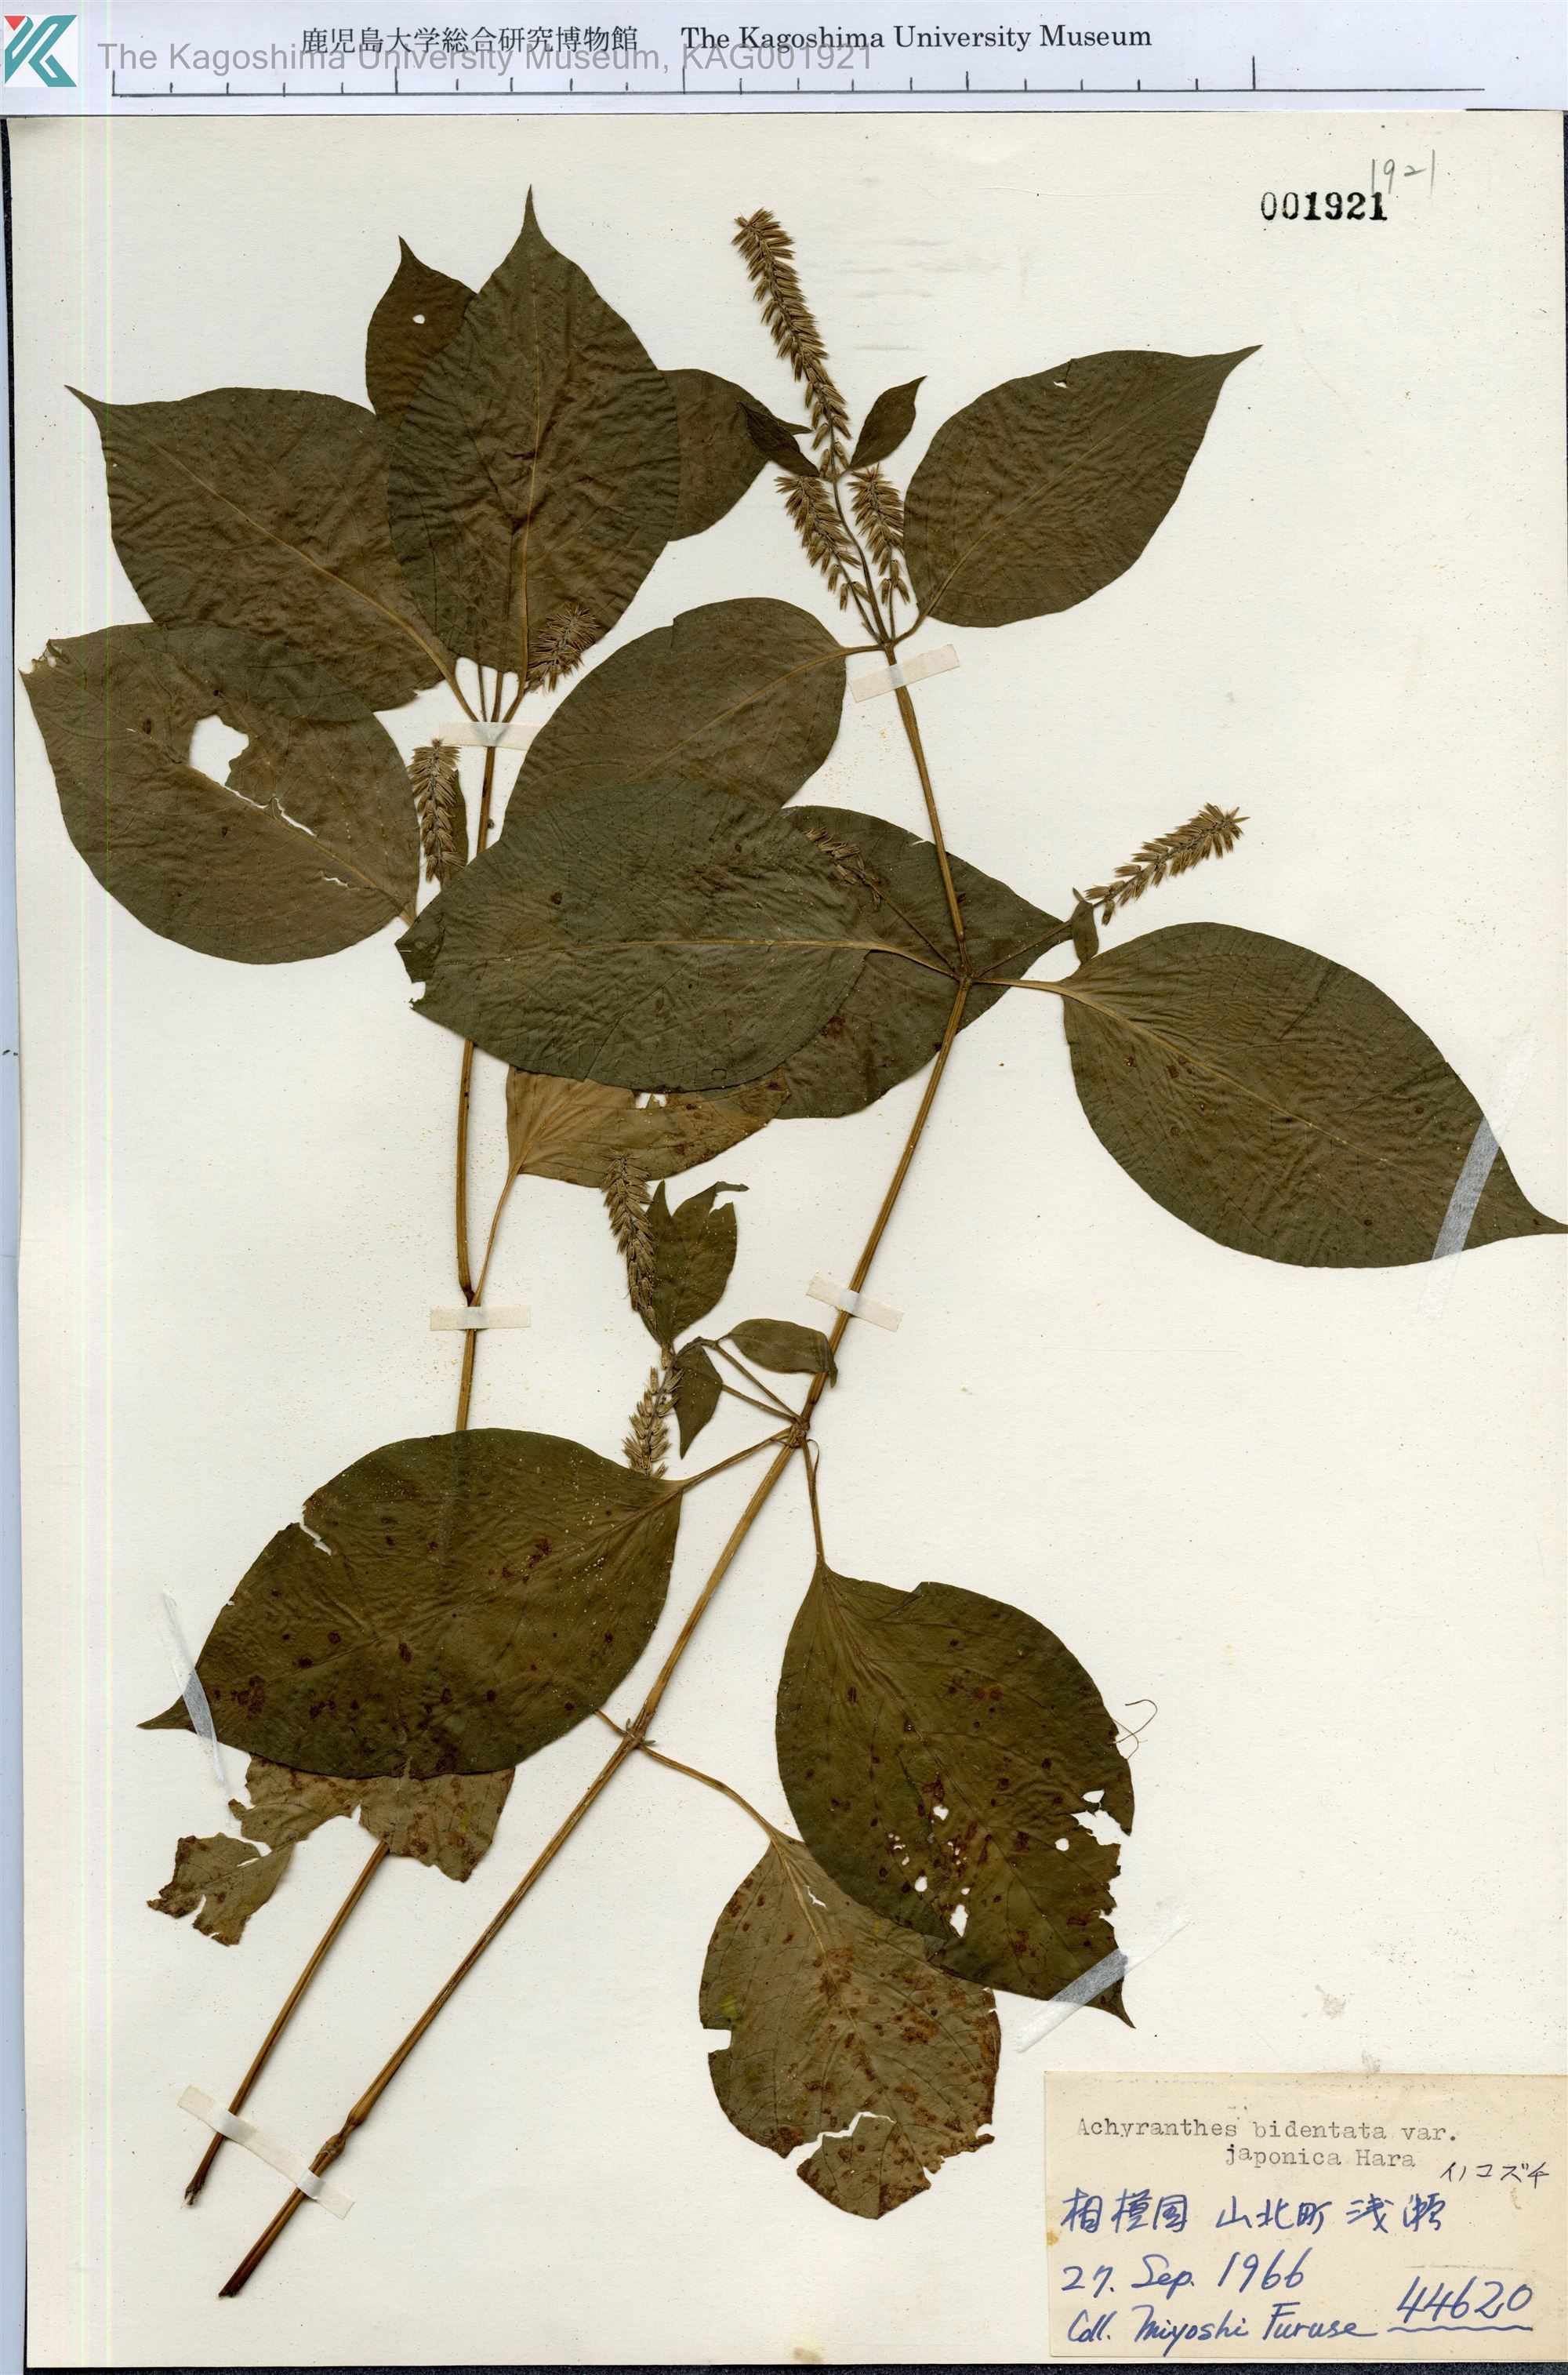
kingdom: Plantae
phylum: Tracheophyta
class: Magnoliopsida
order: Caryophyllales
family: Amaranthaceae
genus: Achyranthes
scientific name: Achyranthes bidentata
